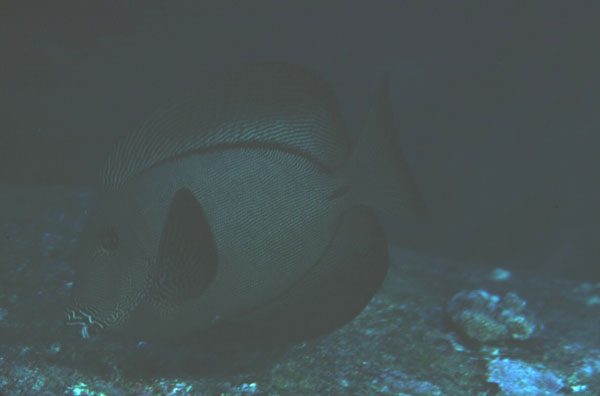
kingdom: Animalia
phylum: Chordata
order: Perciformes
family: Acanthuridae
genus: Ctenochaetus
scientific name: Ctenochaetus hawaiiensis
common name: Hawaiian surgeonfish
